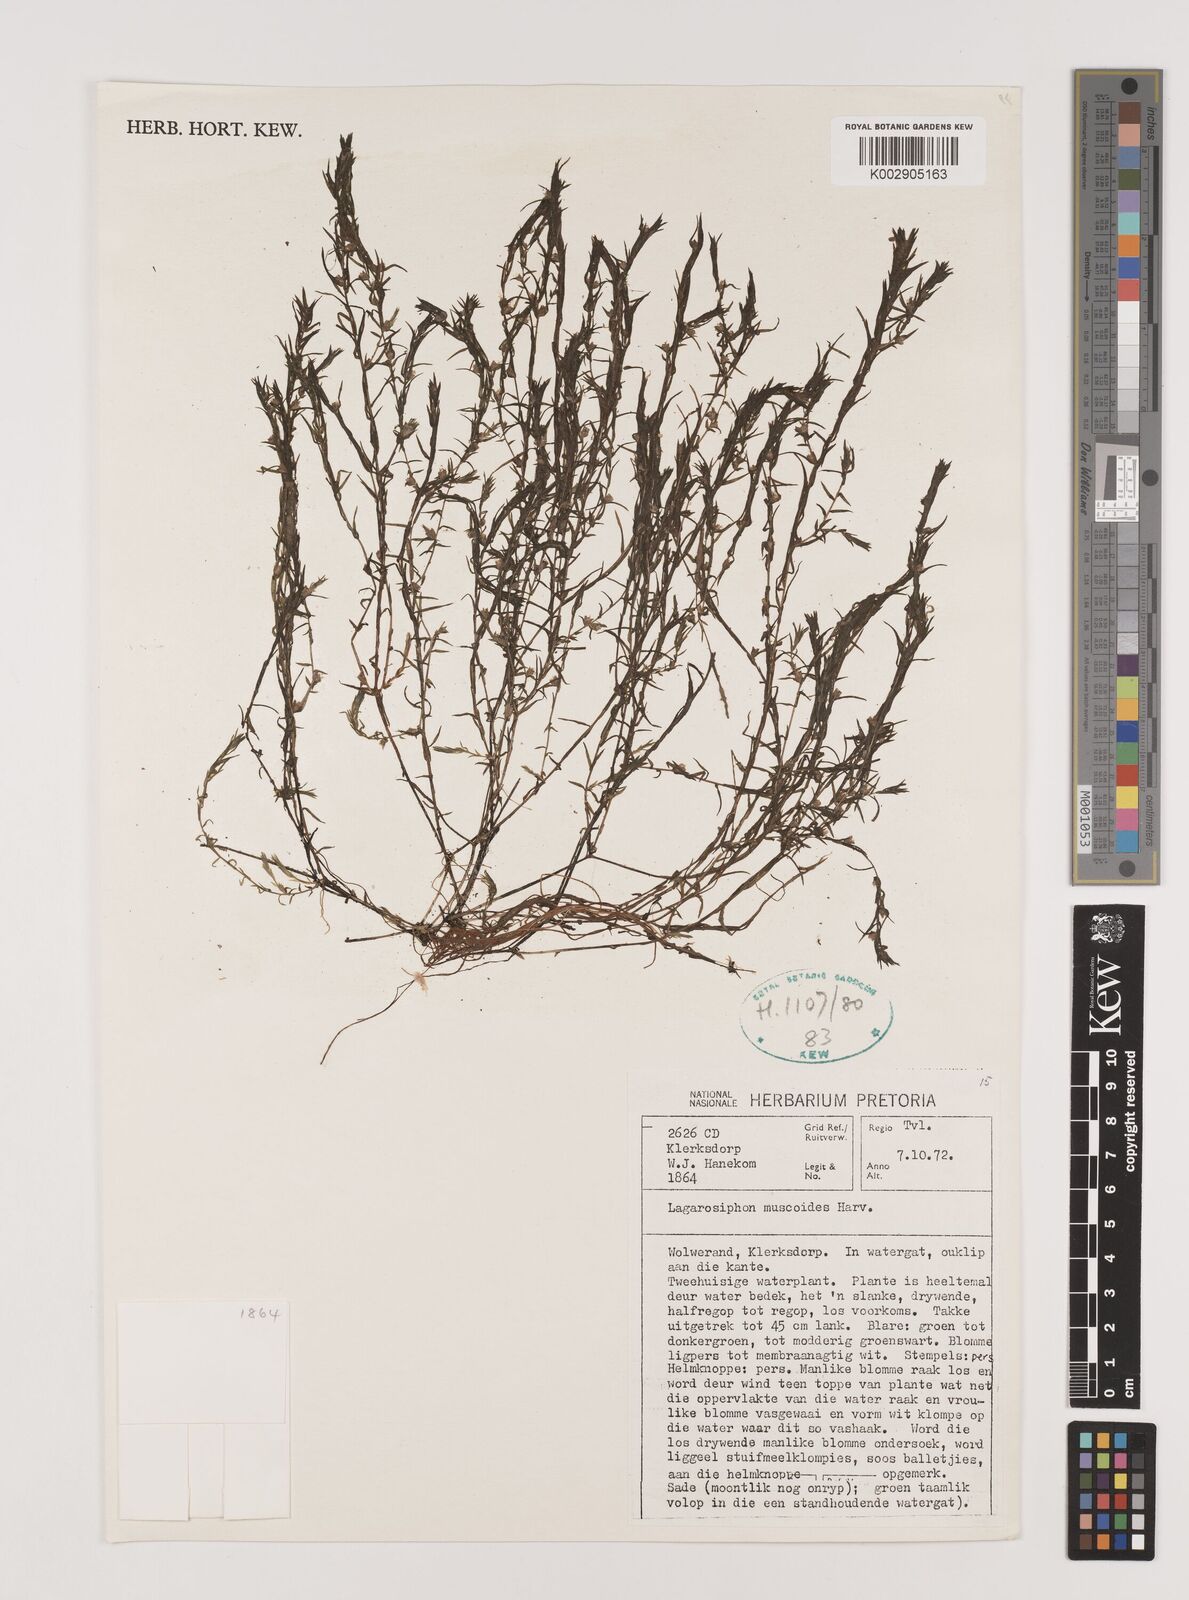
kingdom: Plantae
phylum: Tracheophyta
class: Liliopsida
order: Alismatales
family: Hydrocharitaceae
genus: Lagarosiphon
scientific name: Lagarosiphon muscoides
